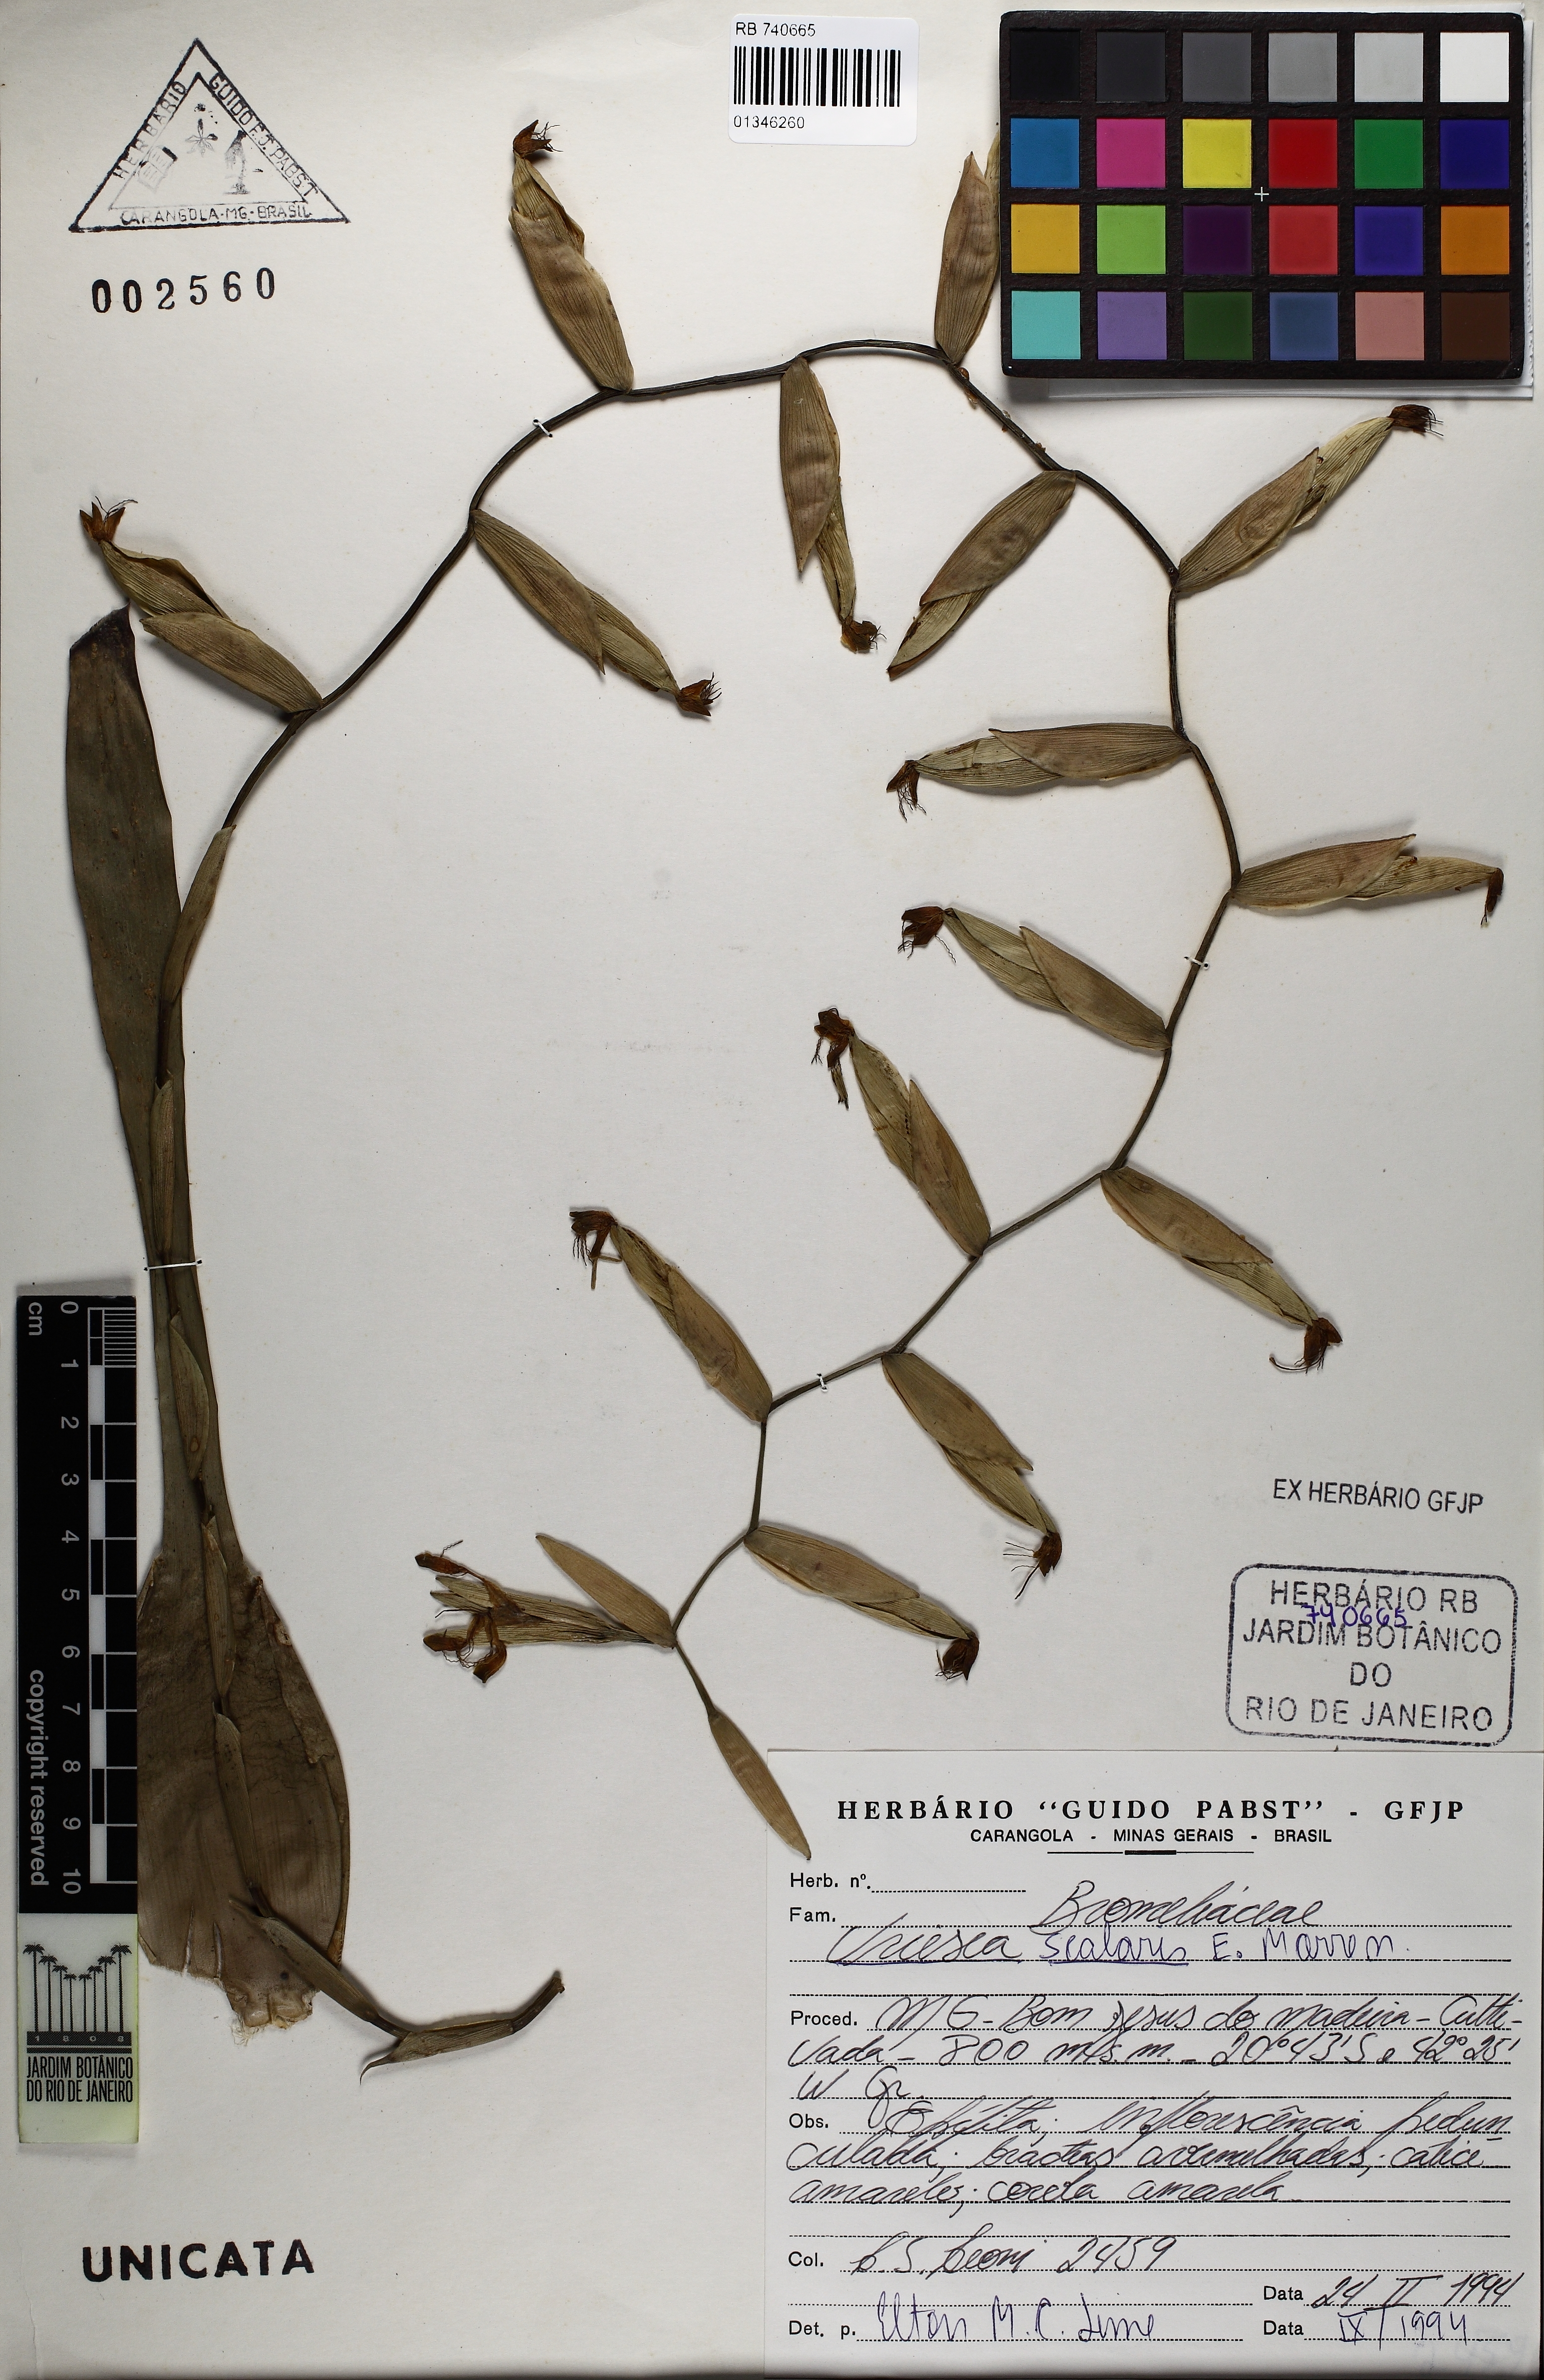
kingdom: Plantae
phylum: Tracheophyta
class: Liliopsida
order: Poales
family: Bromeliaceae
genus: Vriesea
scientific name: Vriesea scalaris
